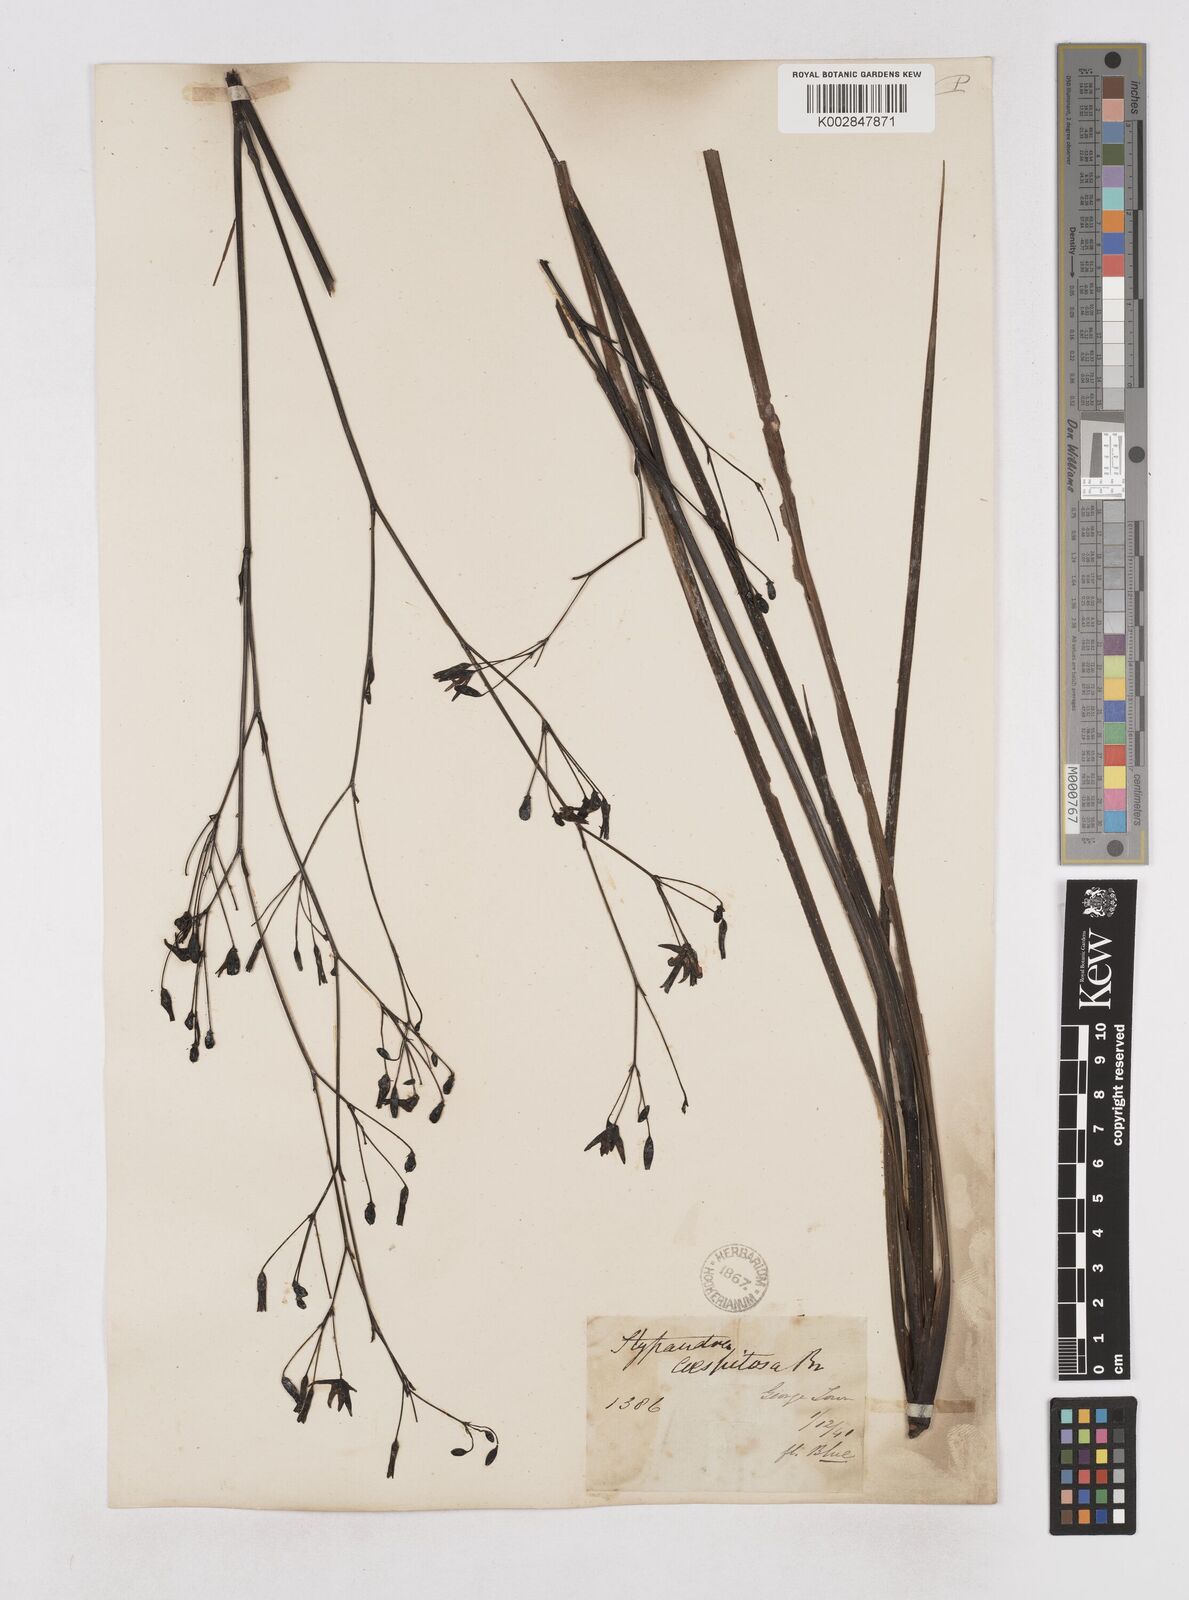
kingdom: Plantae
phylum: Tracheophyta
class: Liliopsida
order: Asparagales
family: Asphodelaceae
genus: Thelionema
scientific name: Thelionema caespitosum
